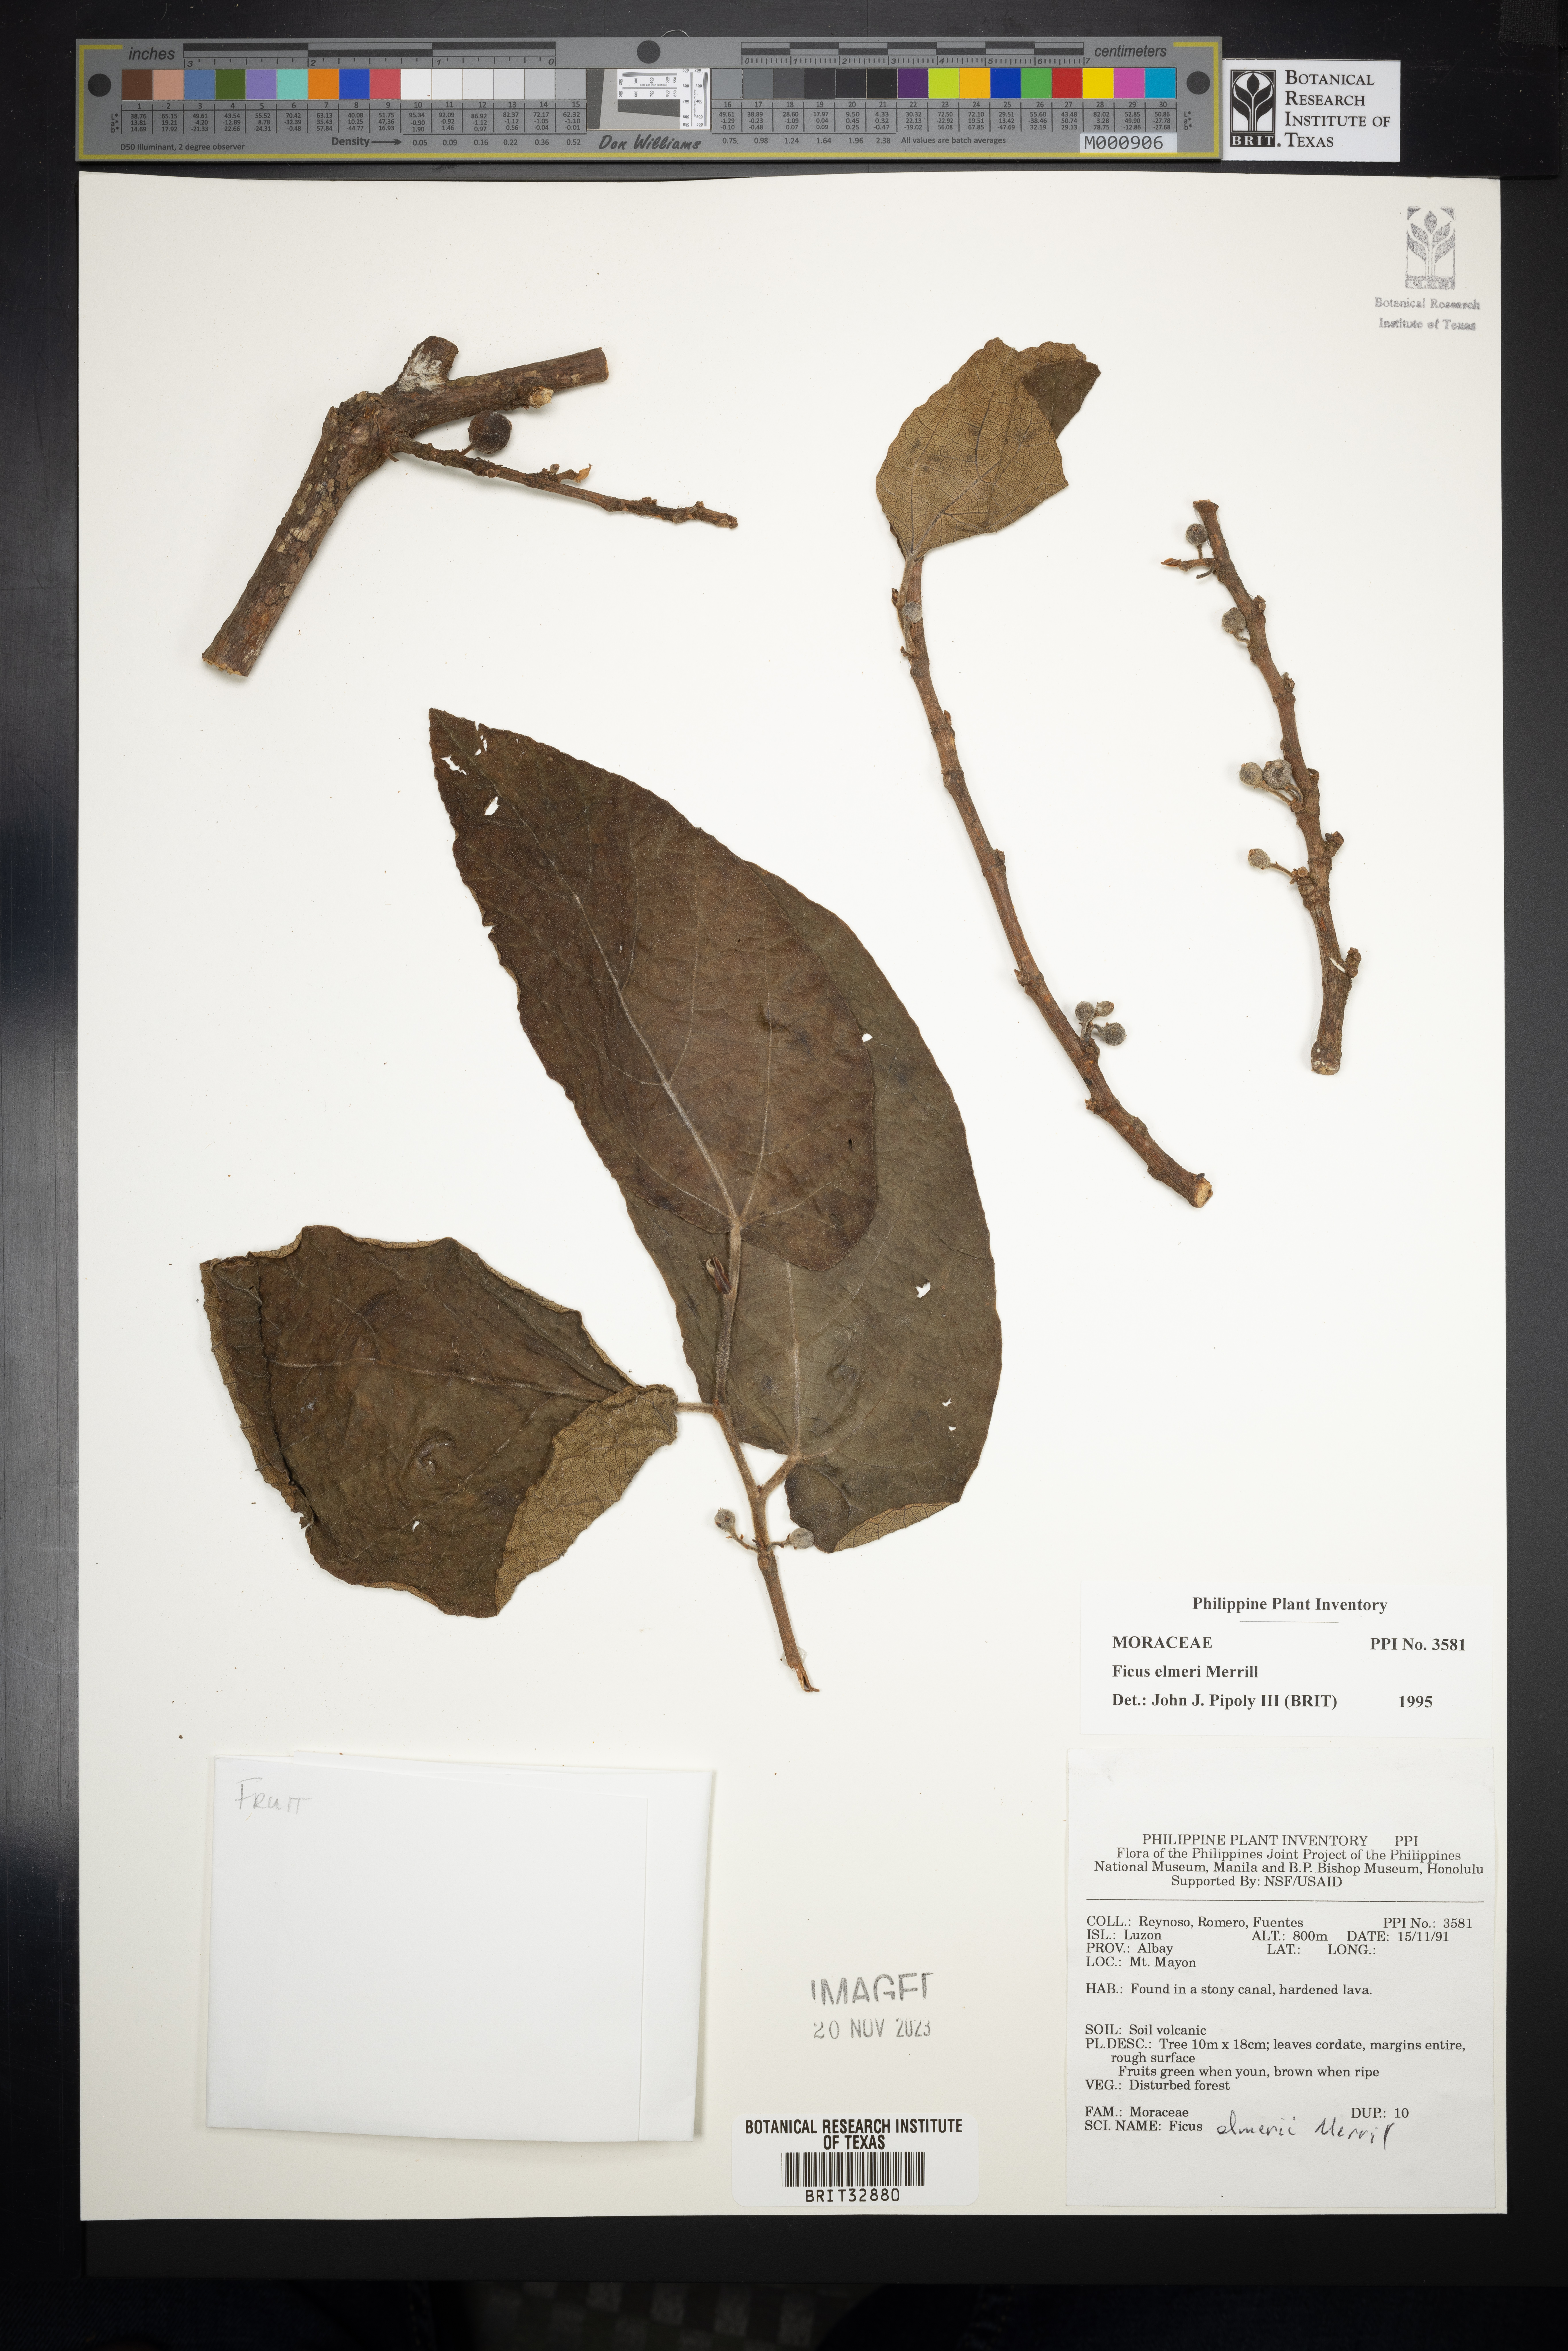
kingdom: Plantae
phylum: Tracheophyta
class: Magnoliopsida
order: Rosales
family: Moraceae
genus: Ficus
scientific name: Ficus elmeri
